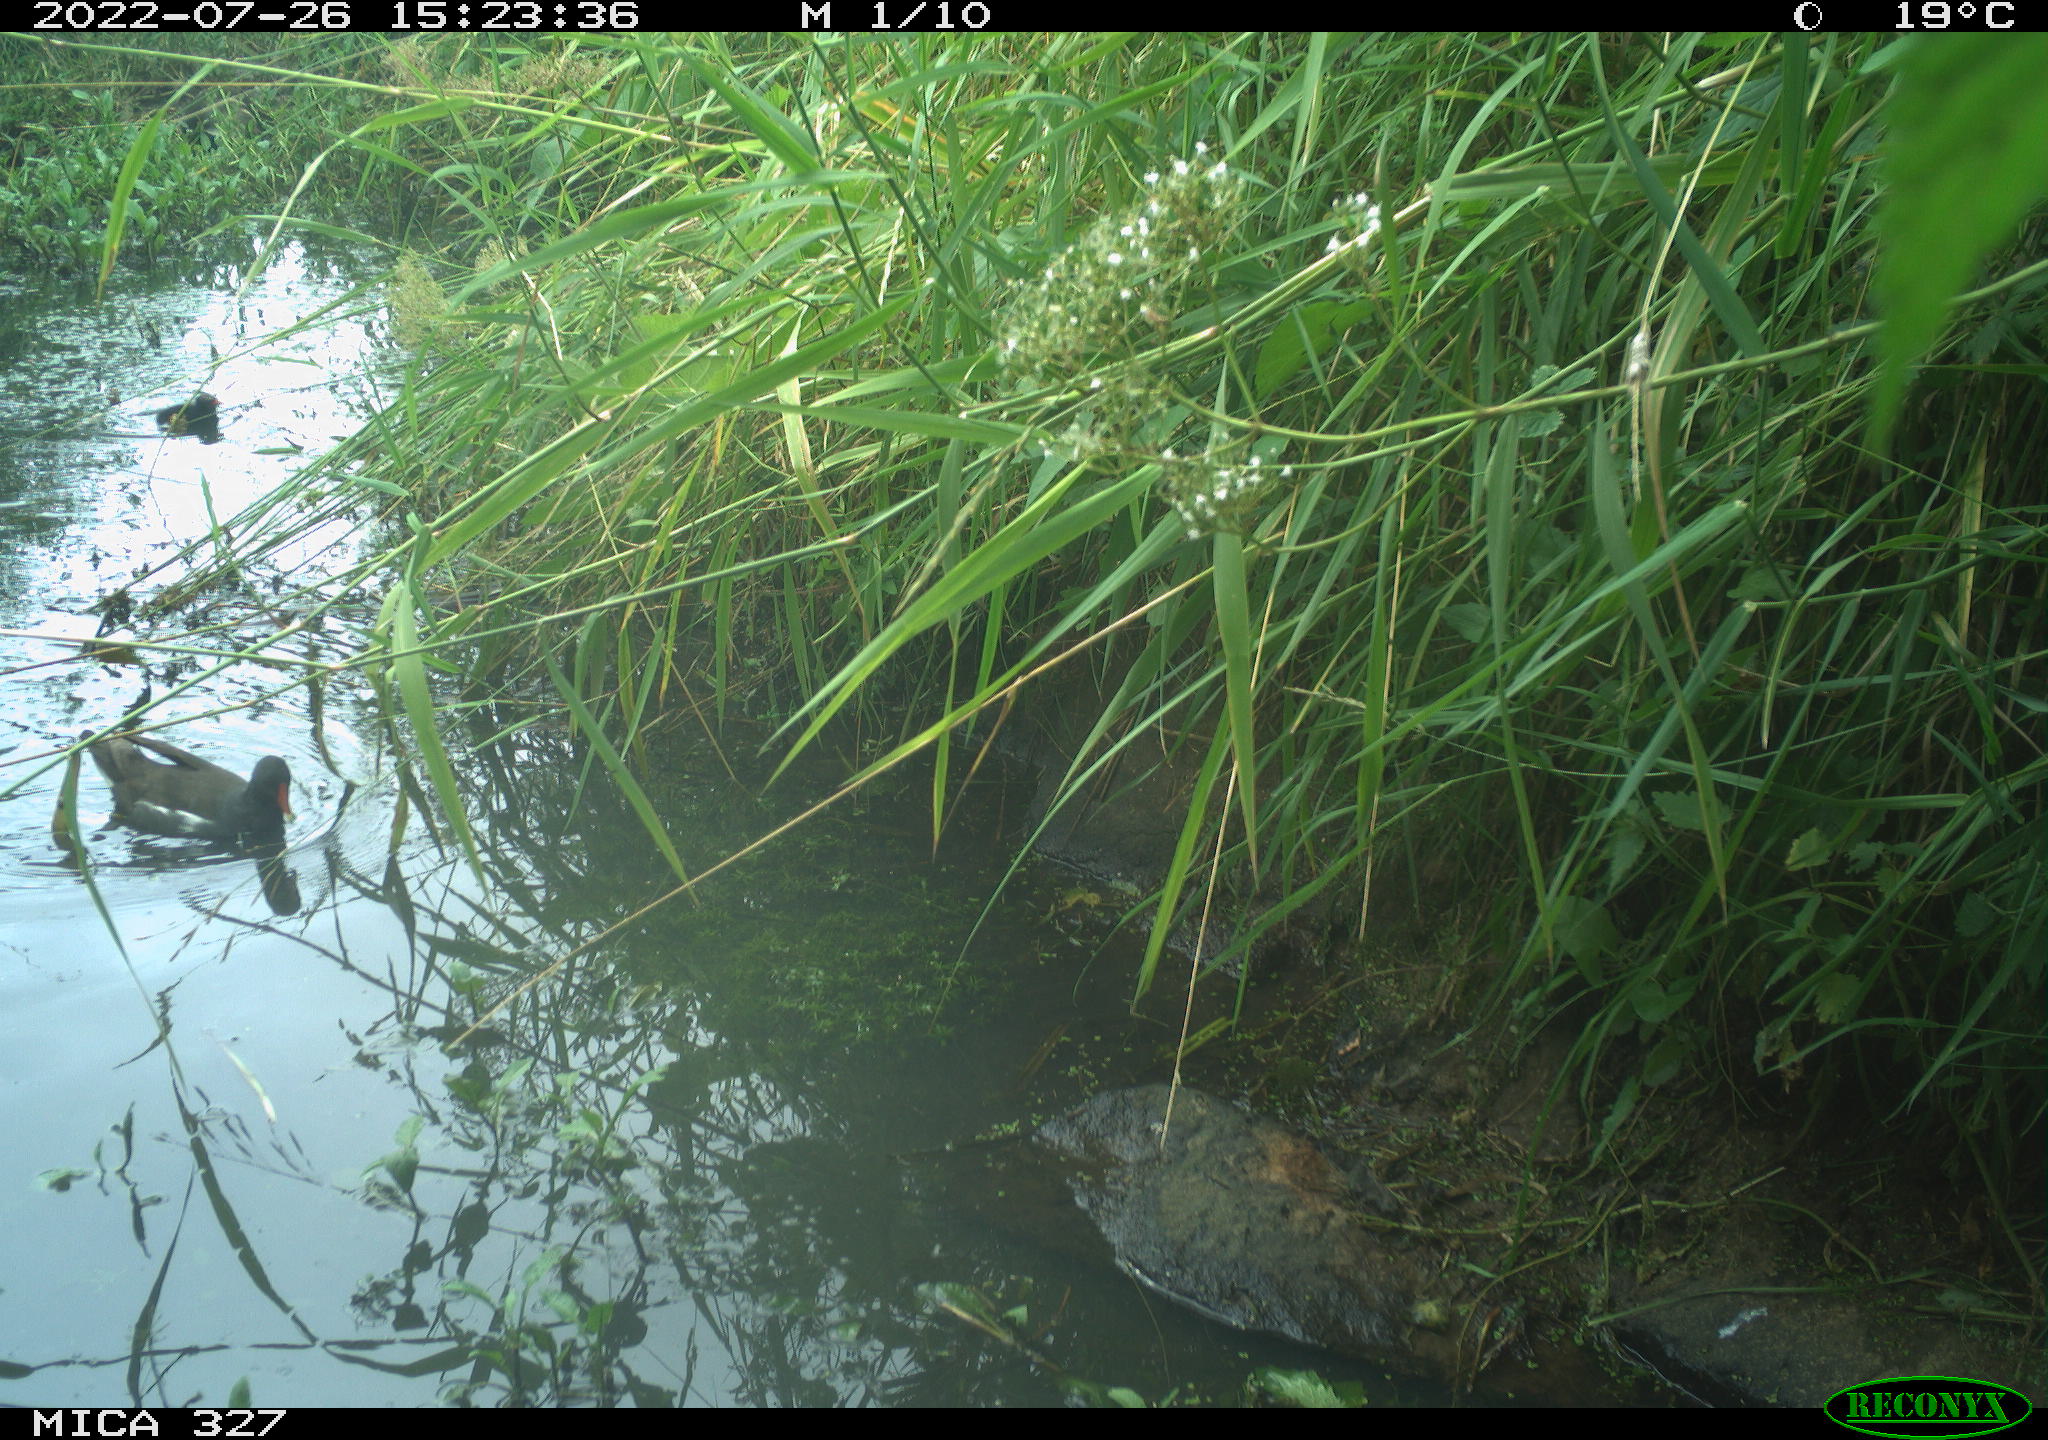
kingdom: Animalia
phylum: Chordata
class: Aves
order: Gruiformes
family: Rallidae
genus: Gallinula
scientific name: Gallinula chloropus
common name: Common moorhen
